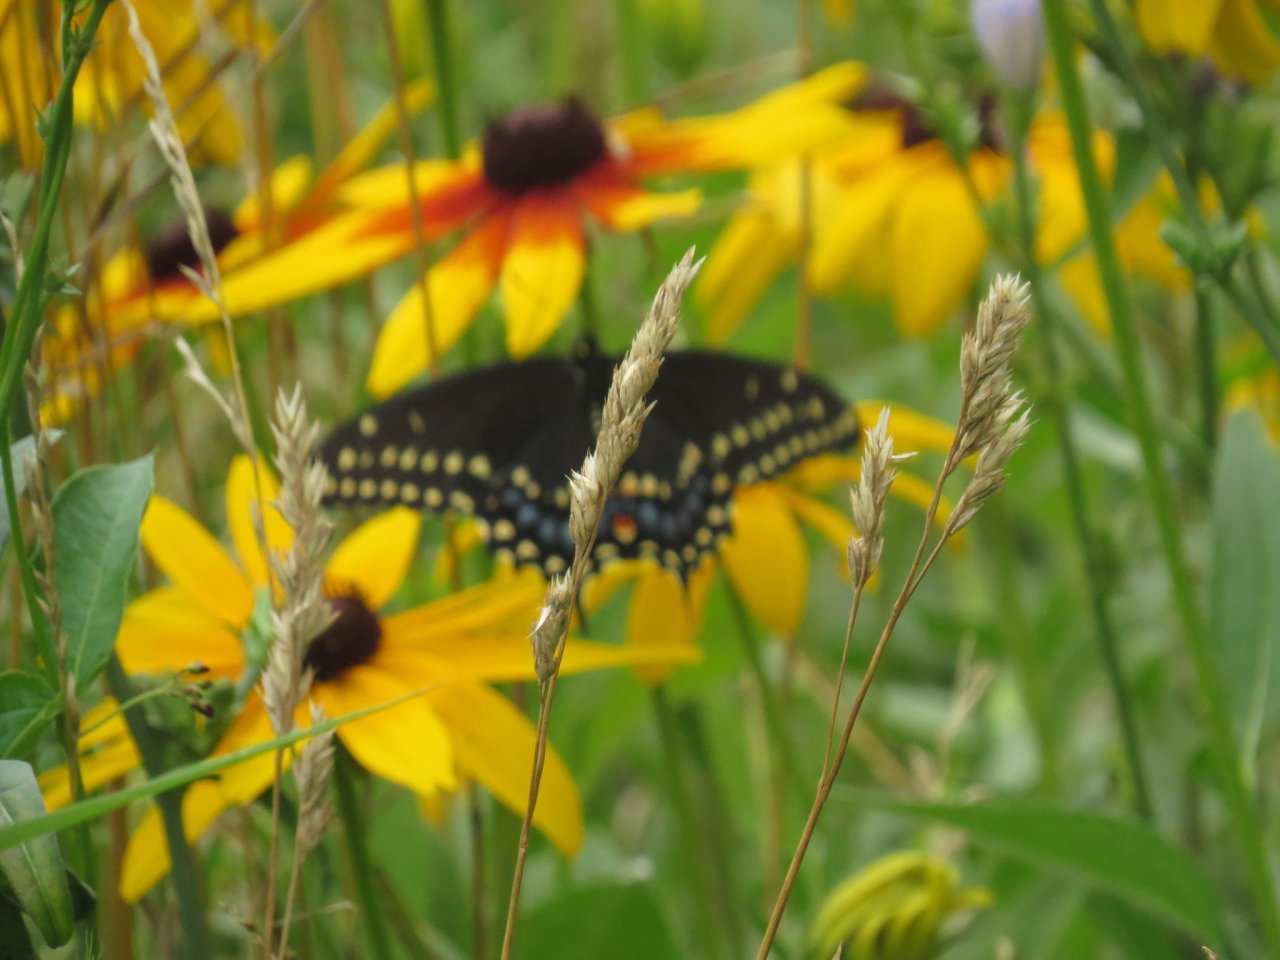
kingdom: Animalia
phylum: Arthropoda
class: Insecta
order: Lepidoptera
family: Papilionidae
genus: Papilio
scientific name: Papilio polyxenes
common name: Black Swallowtail
